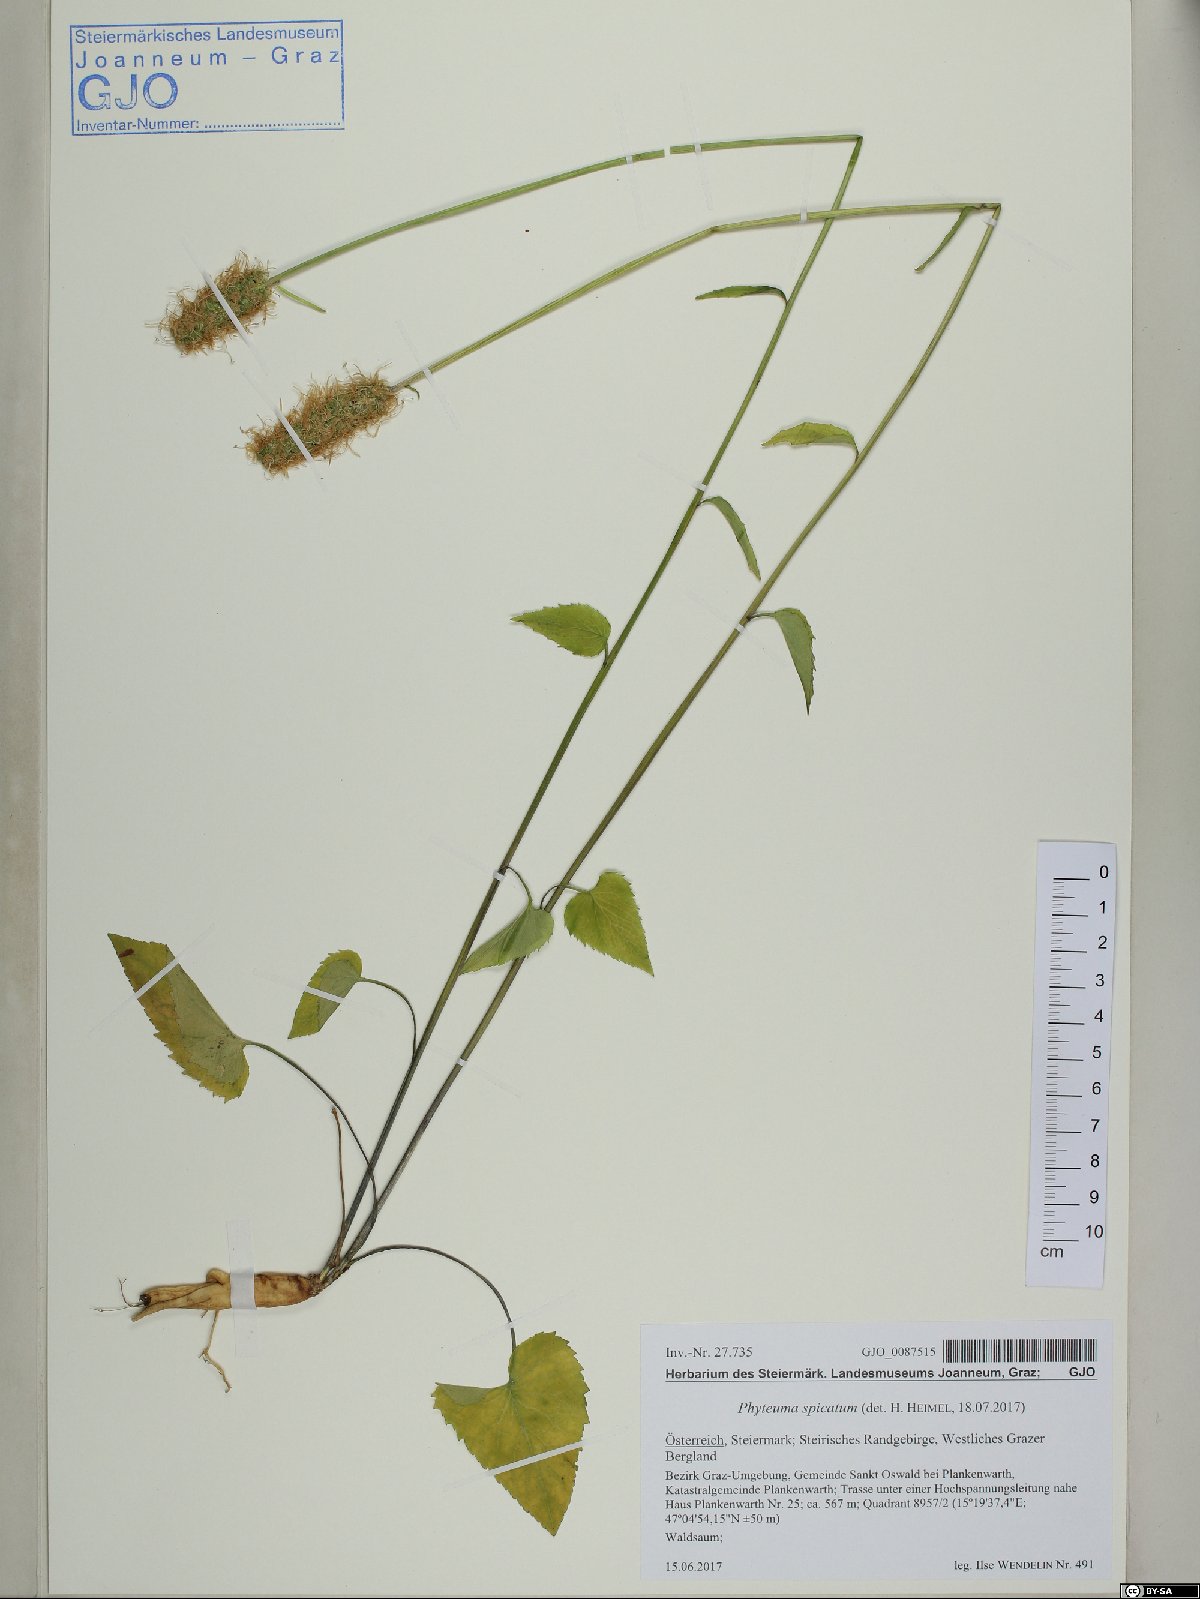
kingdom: Plantae
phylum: Tracheophyta
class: Magnoliopsida
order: Asterales
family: Campanulaceae
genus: Phyteuma
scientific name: Phyteuma spicatum
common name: Spiked rampion
